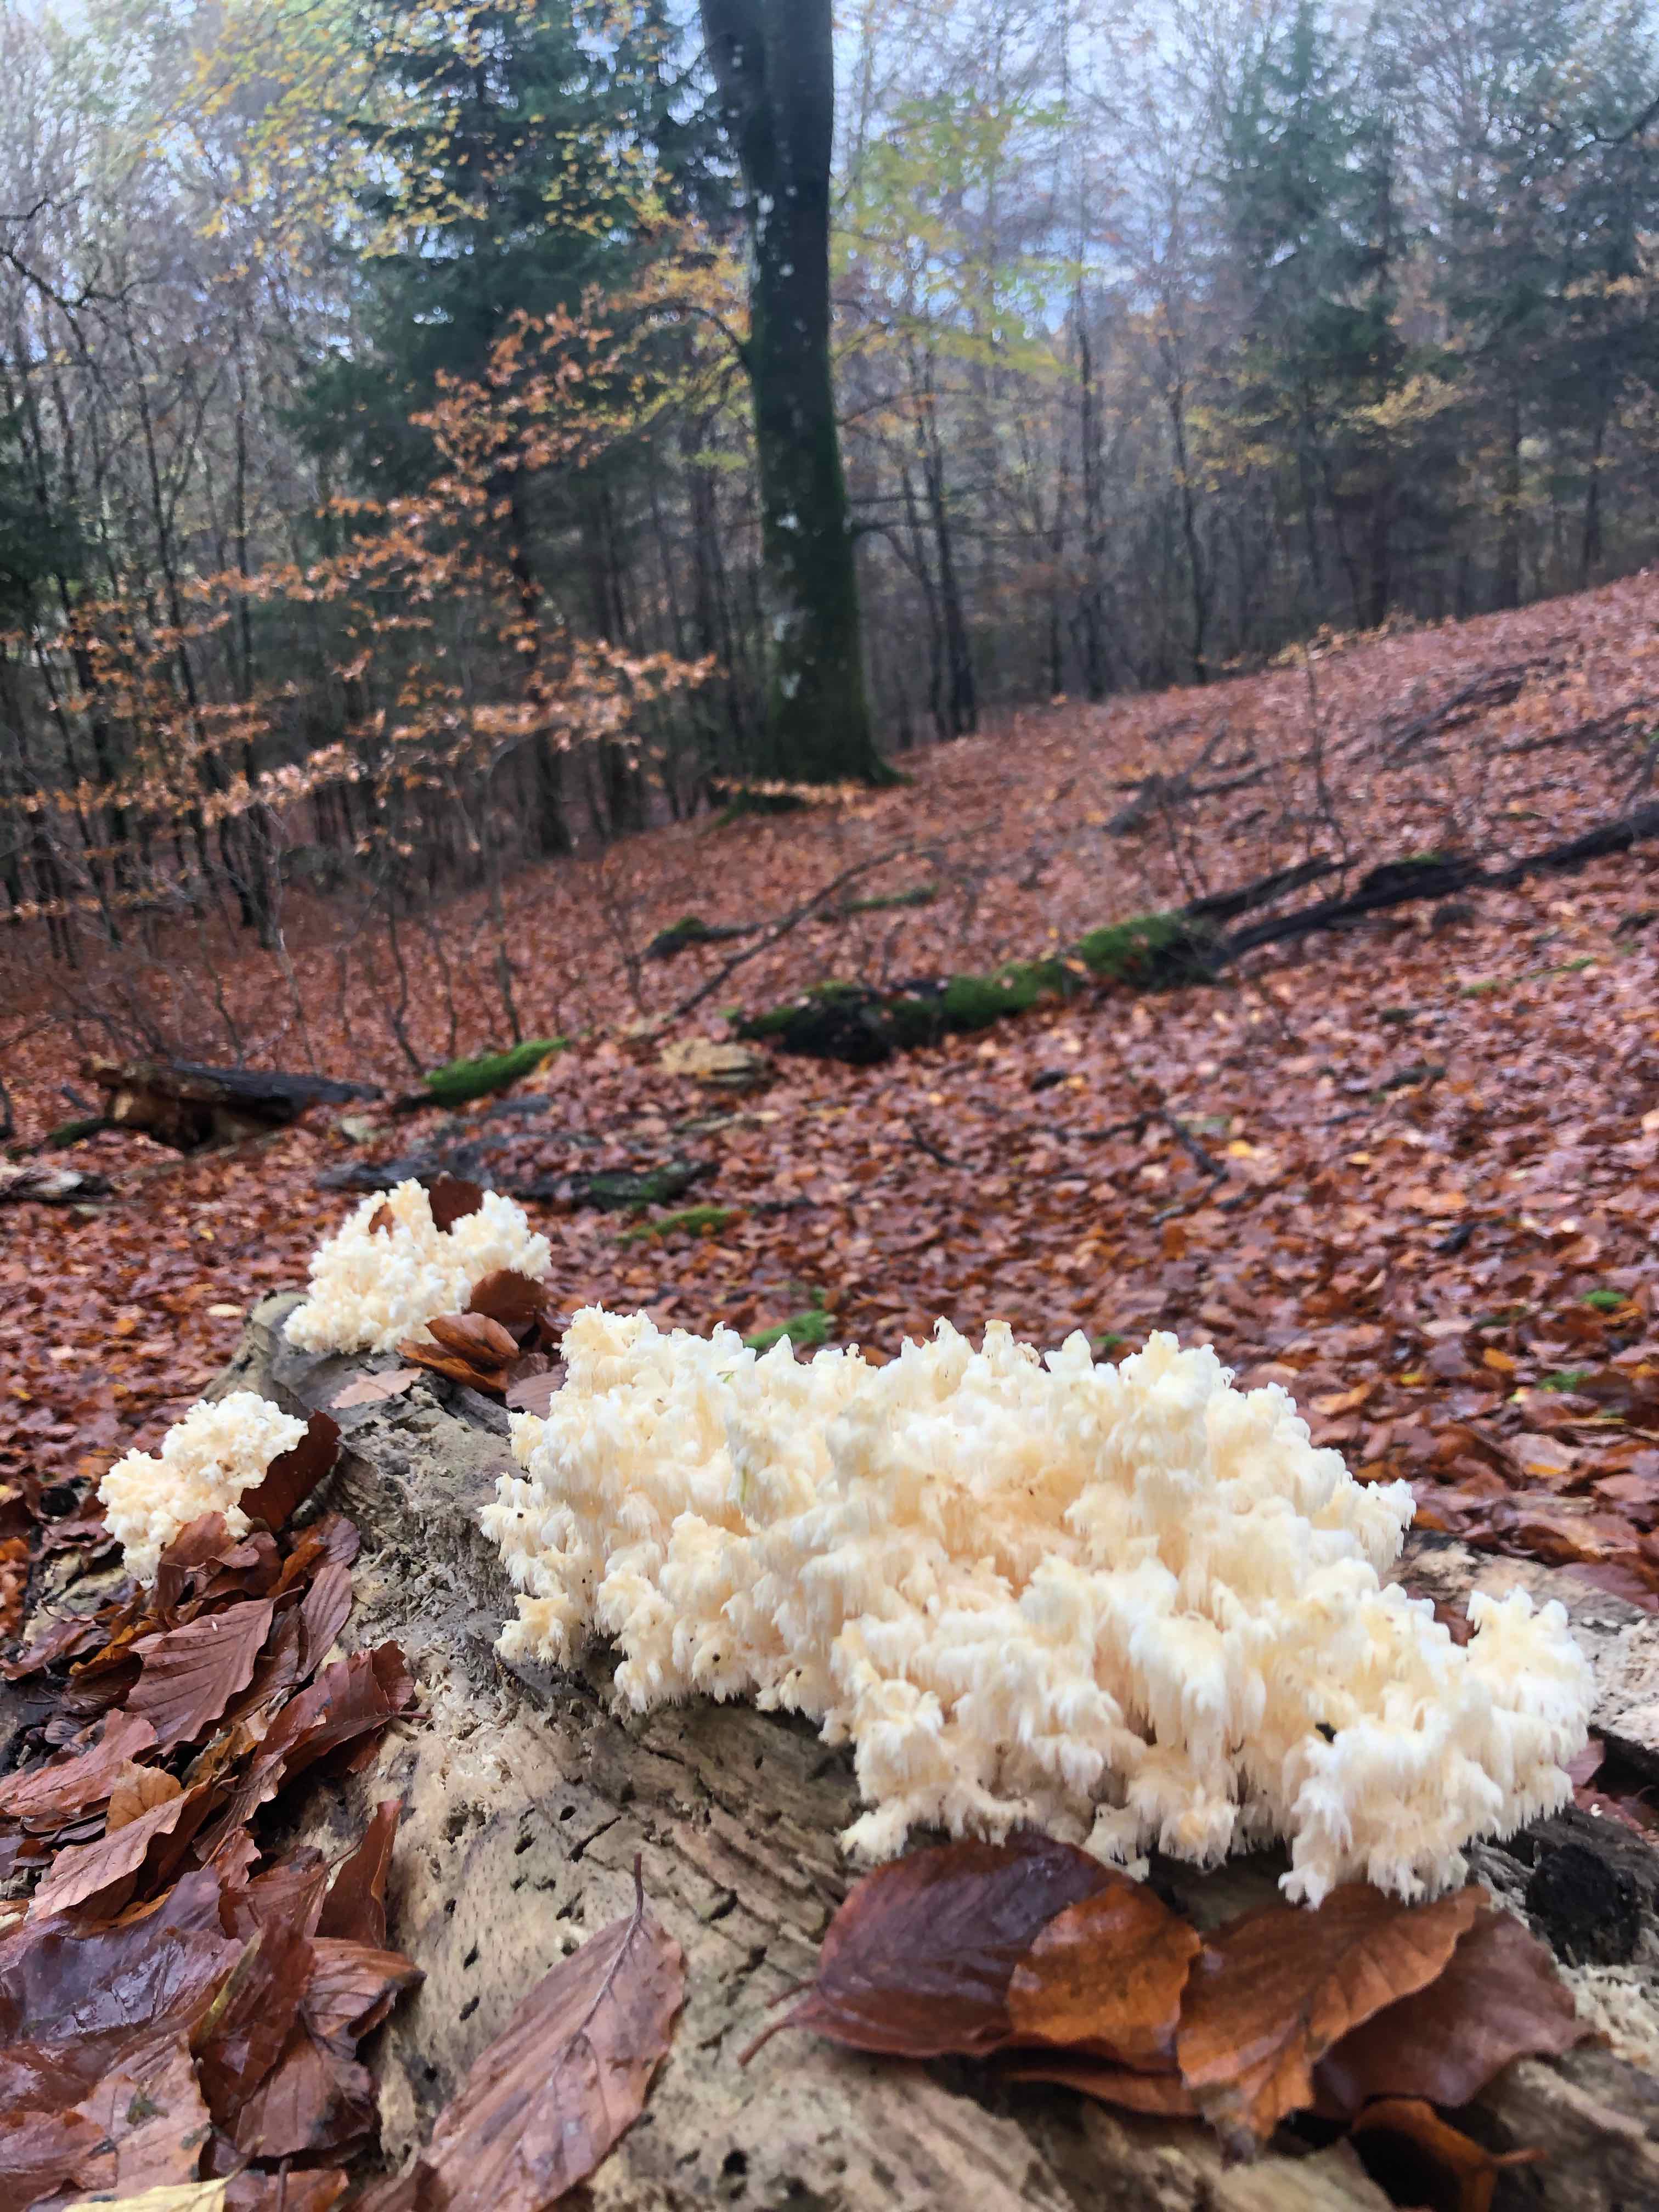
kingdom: Fungi
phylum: Basidiomycota
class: Agaricomycetes
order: Russulales
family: Hericiaceae
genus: Hericium
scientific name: Hericium coralloides
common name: koralpigsvamp
